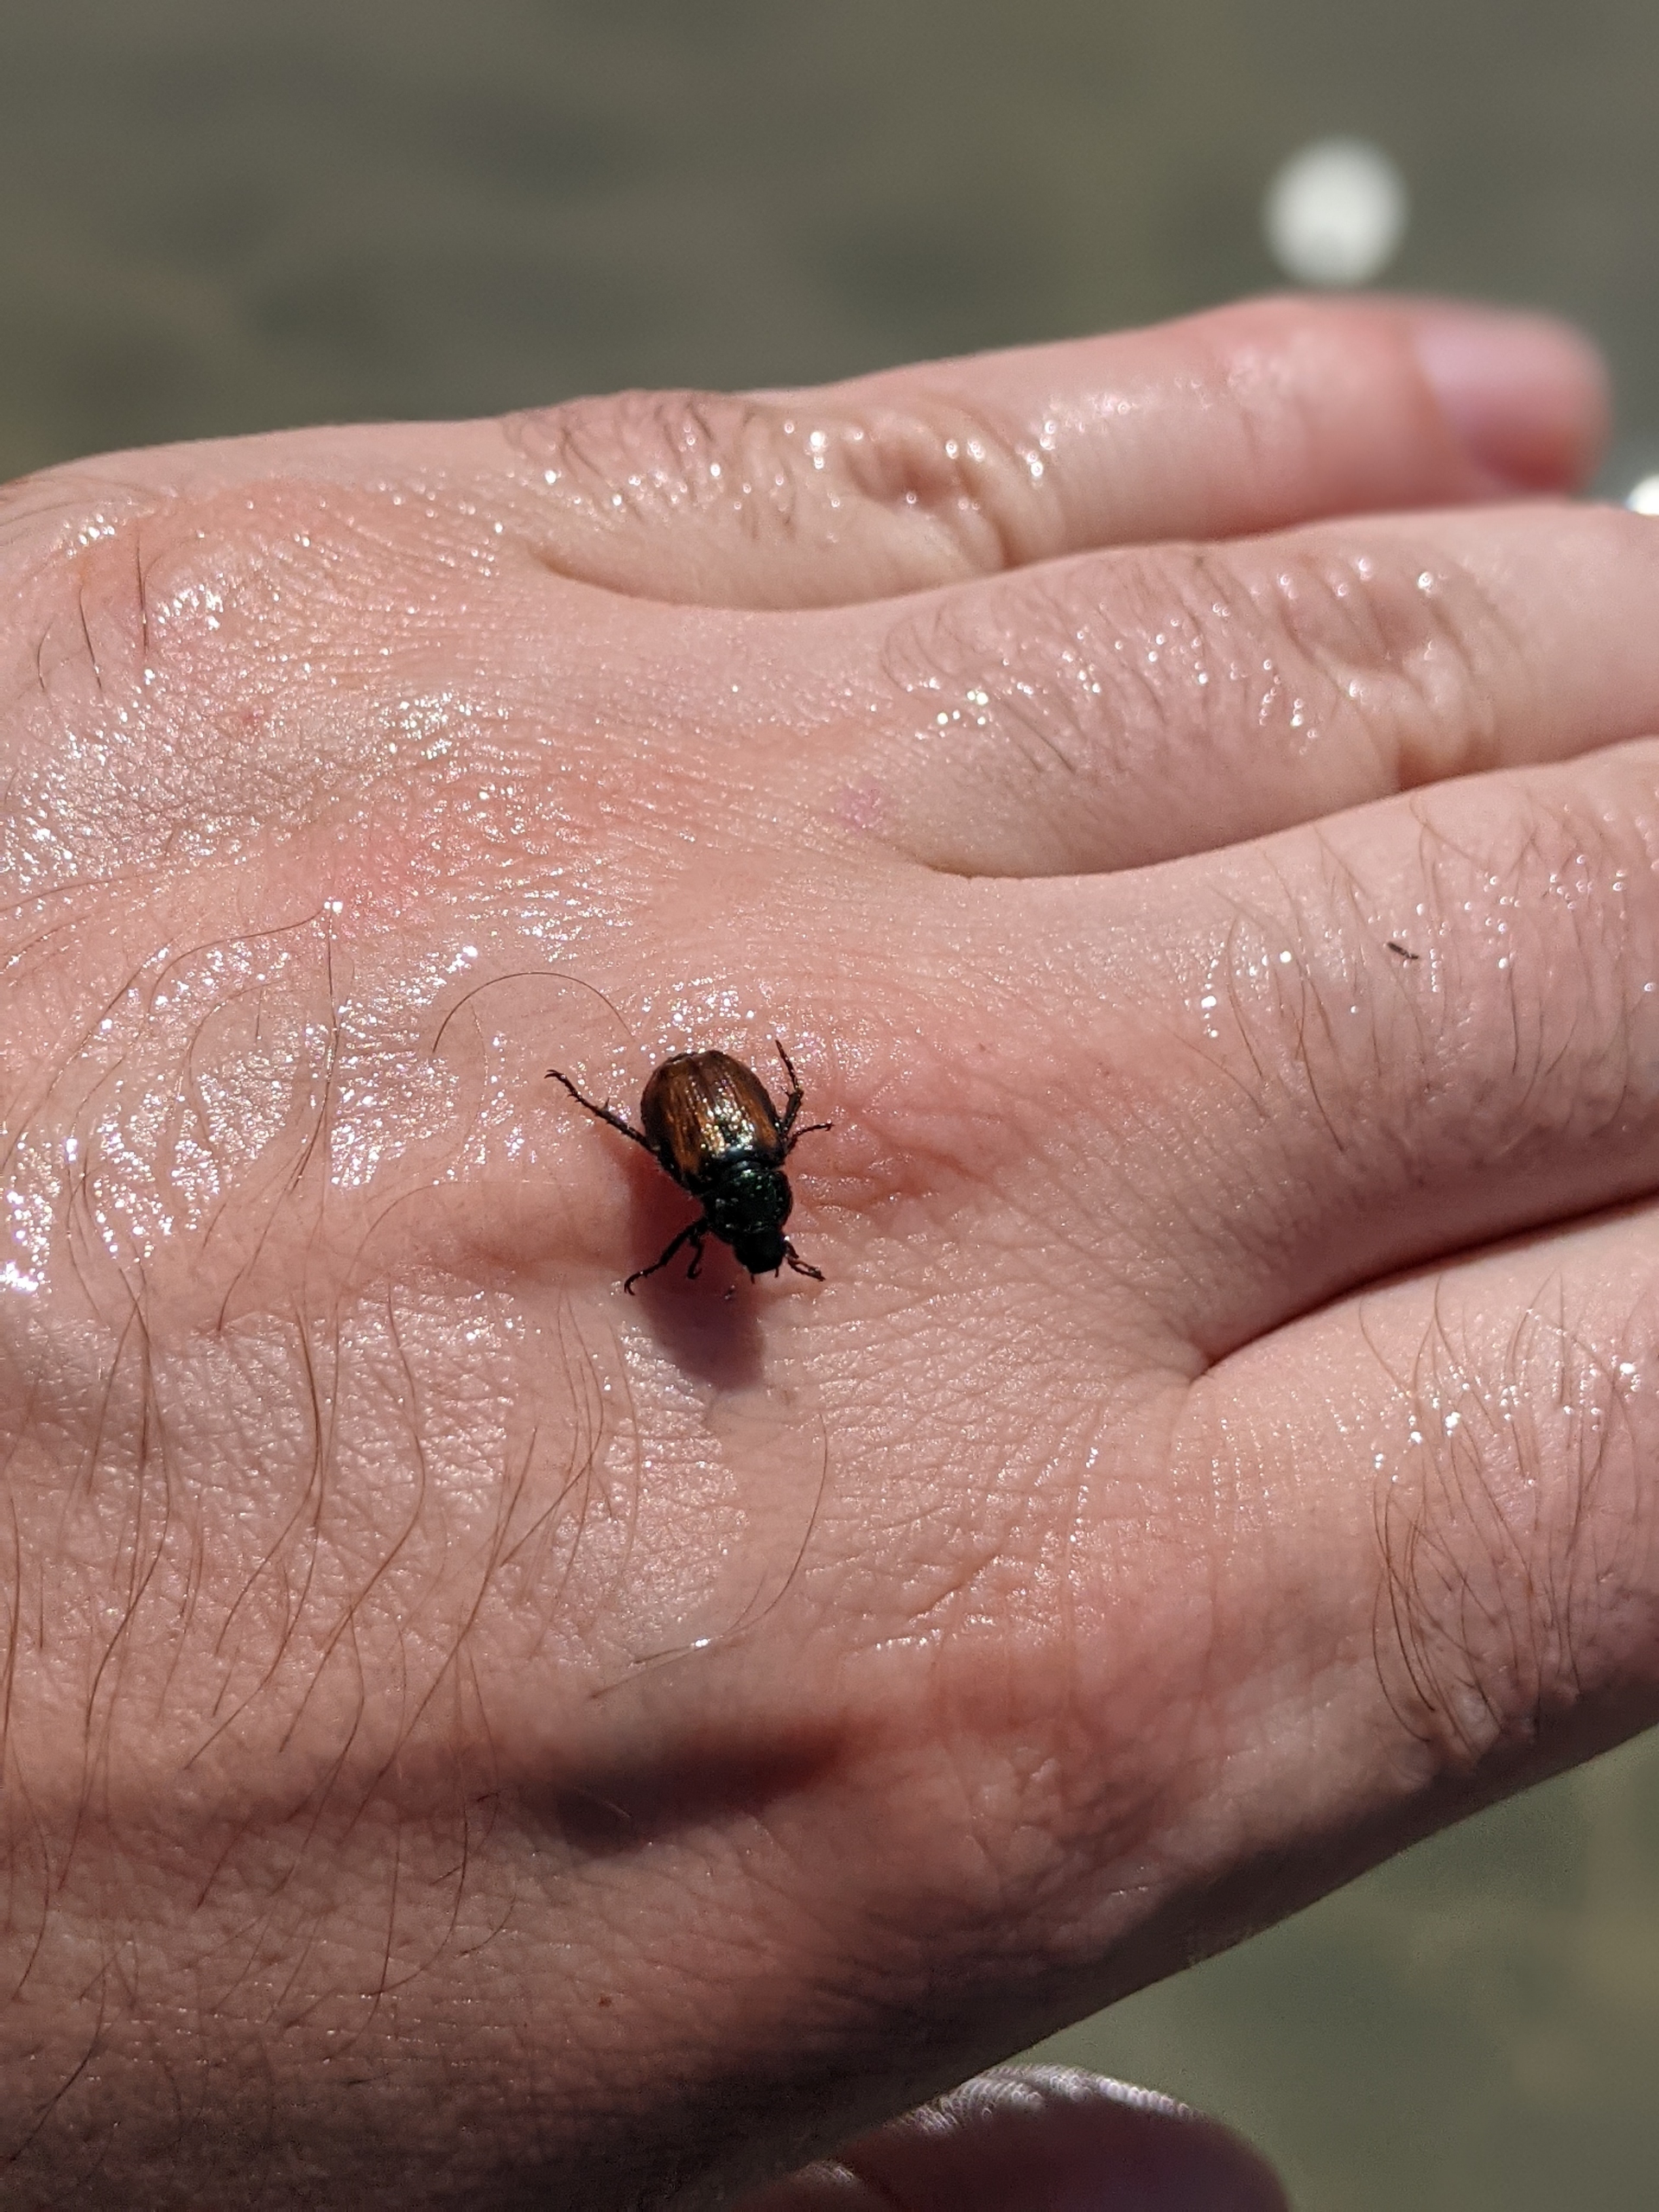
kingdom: Animalia
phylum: Arthropoda
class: Insecta
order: Coleoptera
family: Scarabaeidae
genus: Phyllopertha
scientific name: Phyllopertha horticola
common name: Gåsebille
